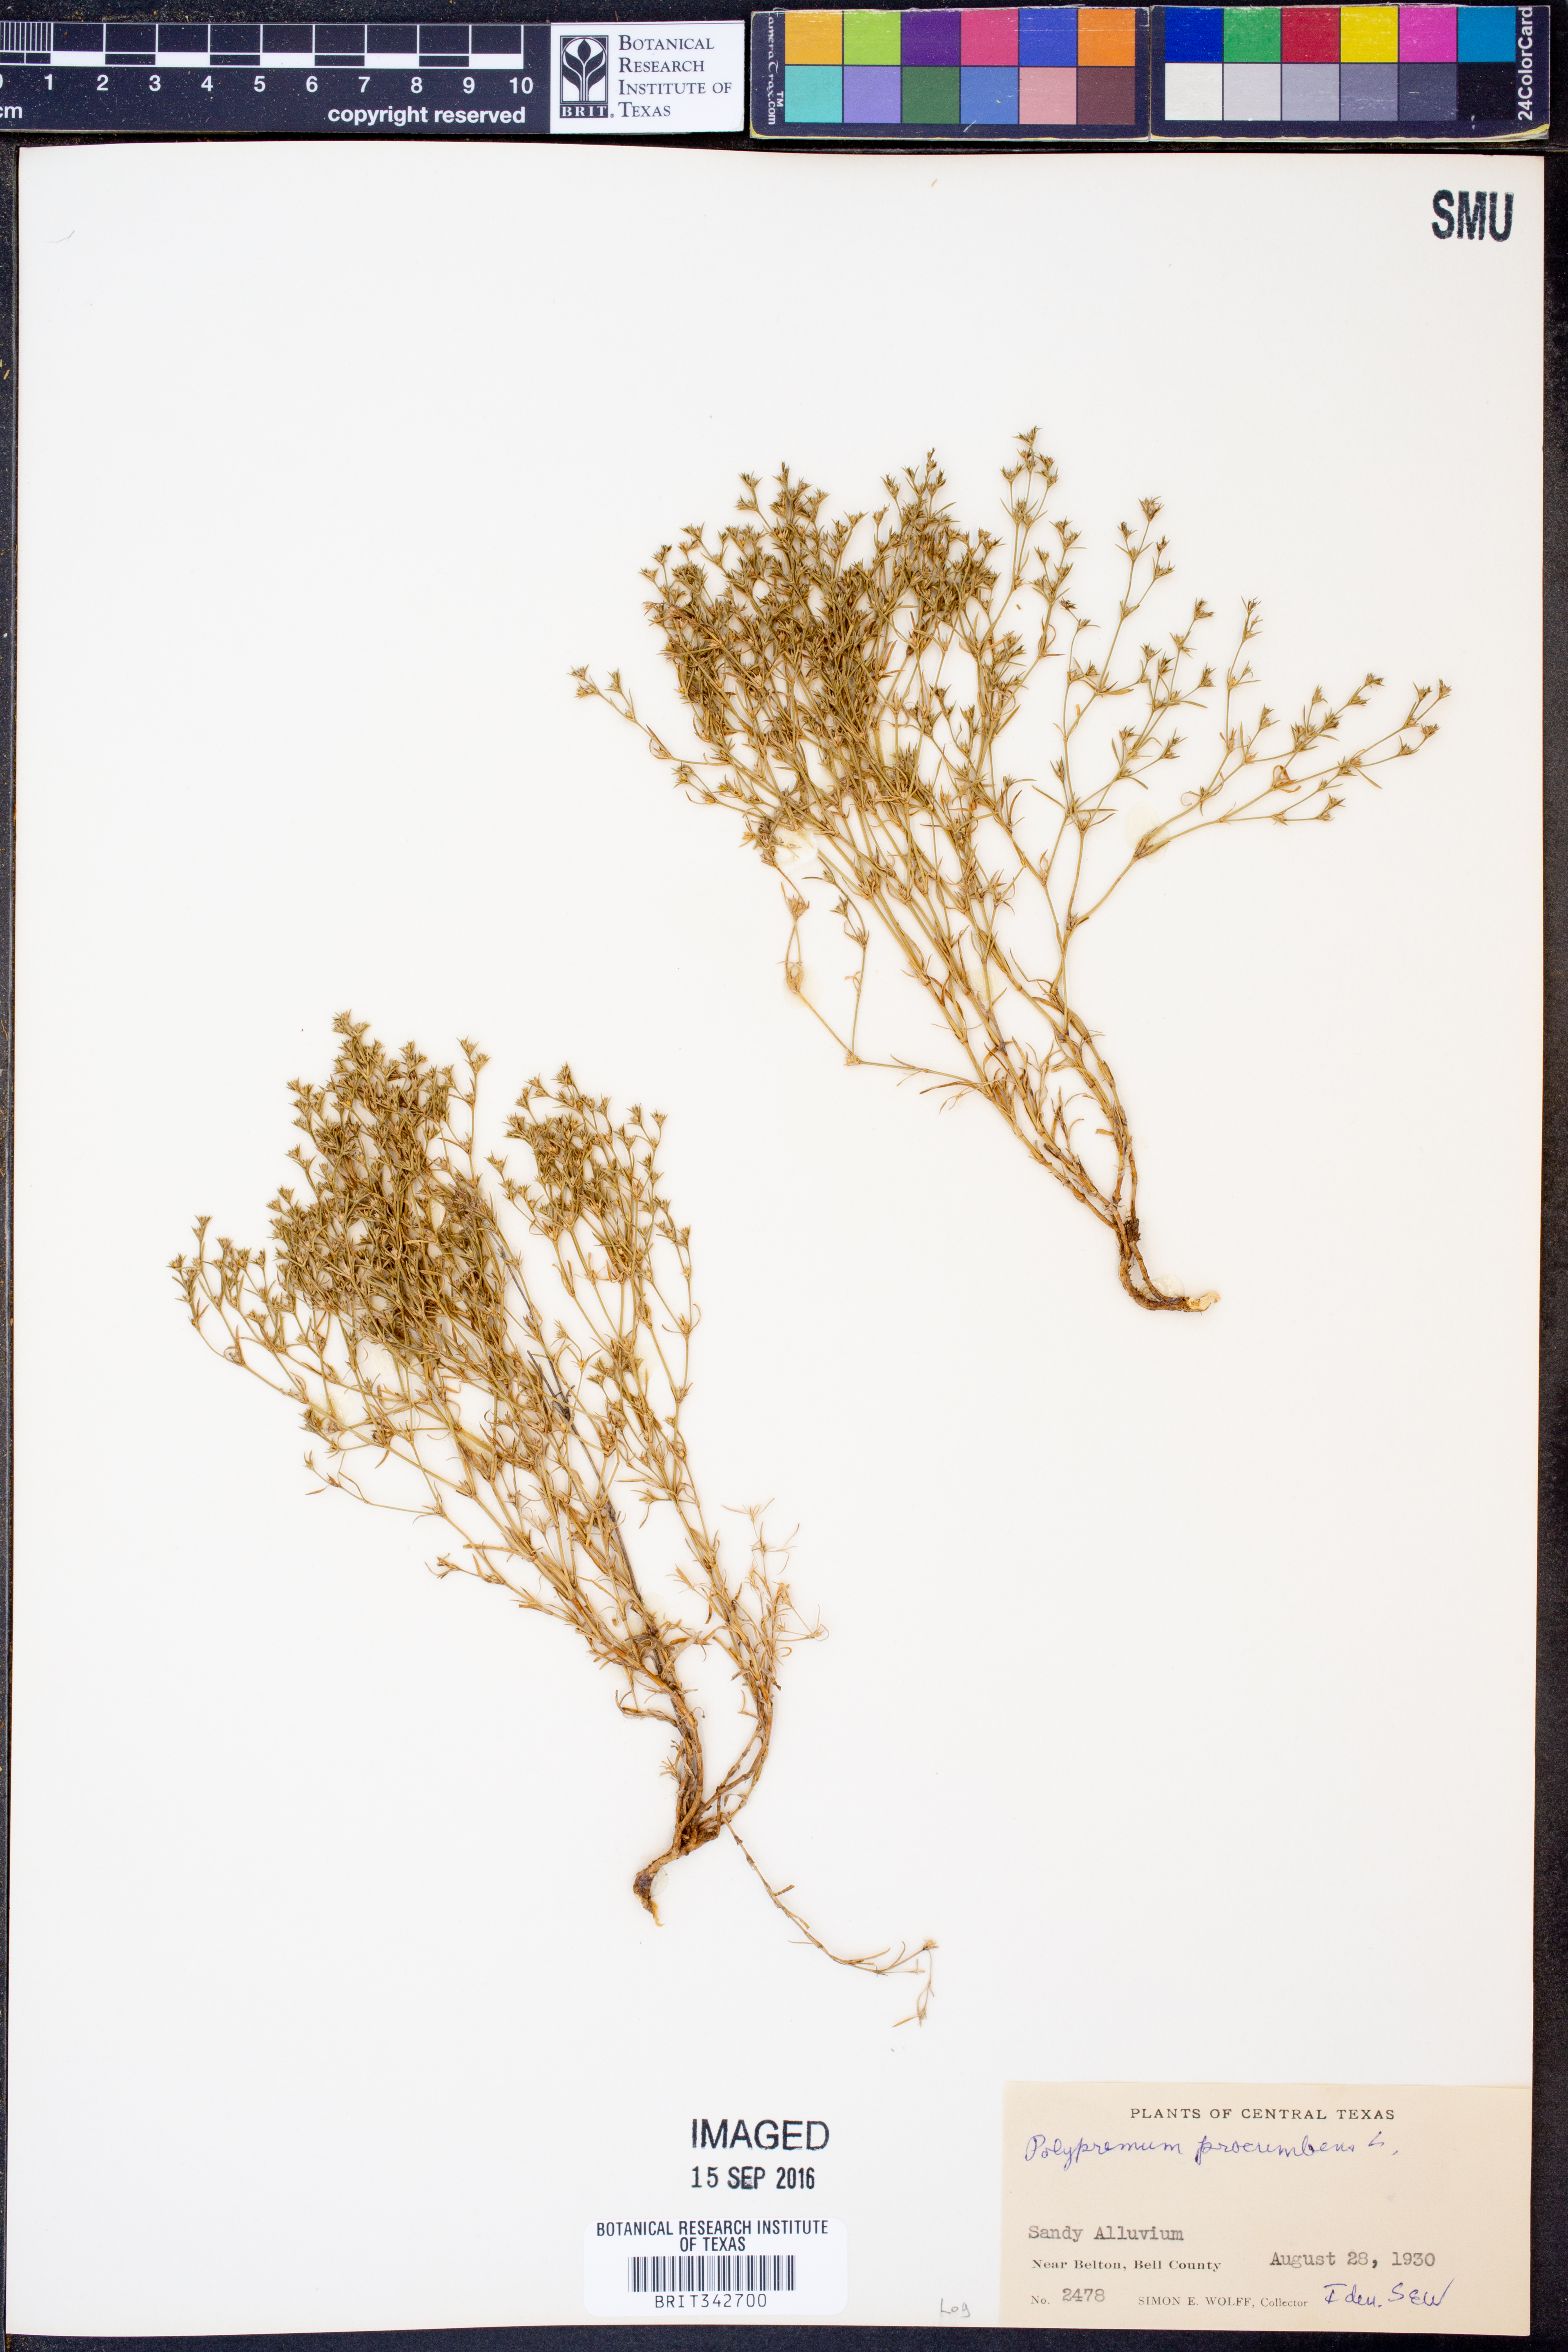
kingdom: Plantae
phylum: Tracheophyta
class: Magnoliopsida
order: Lamiales
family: Tetrachondraceae
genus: Polypremum
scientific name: Polypremum procumbens
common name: Juniper-leaf
